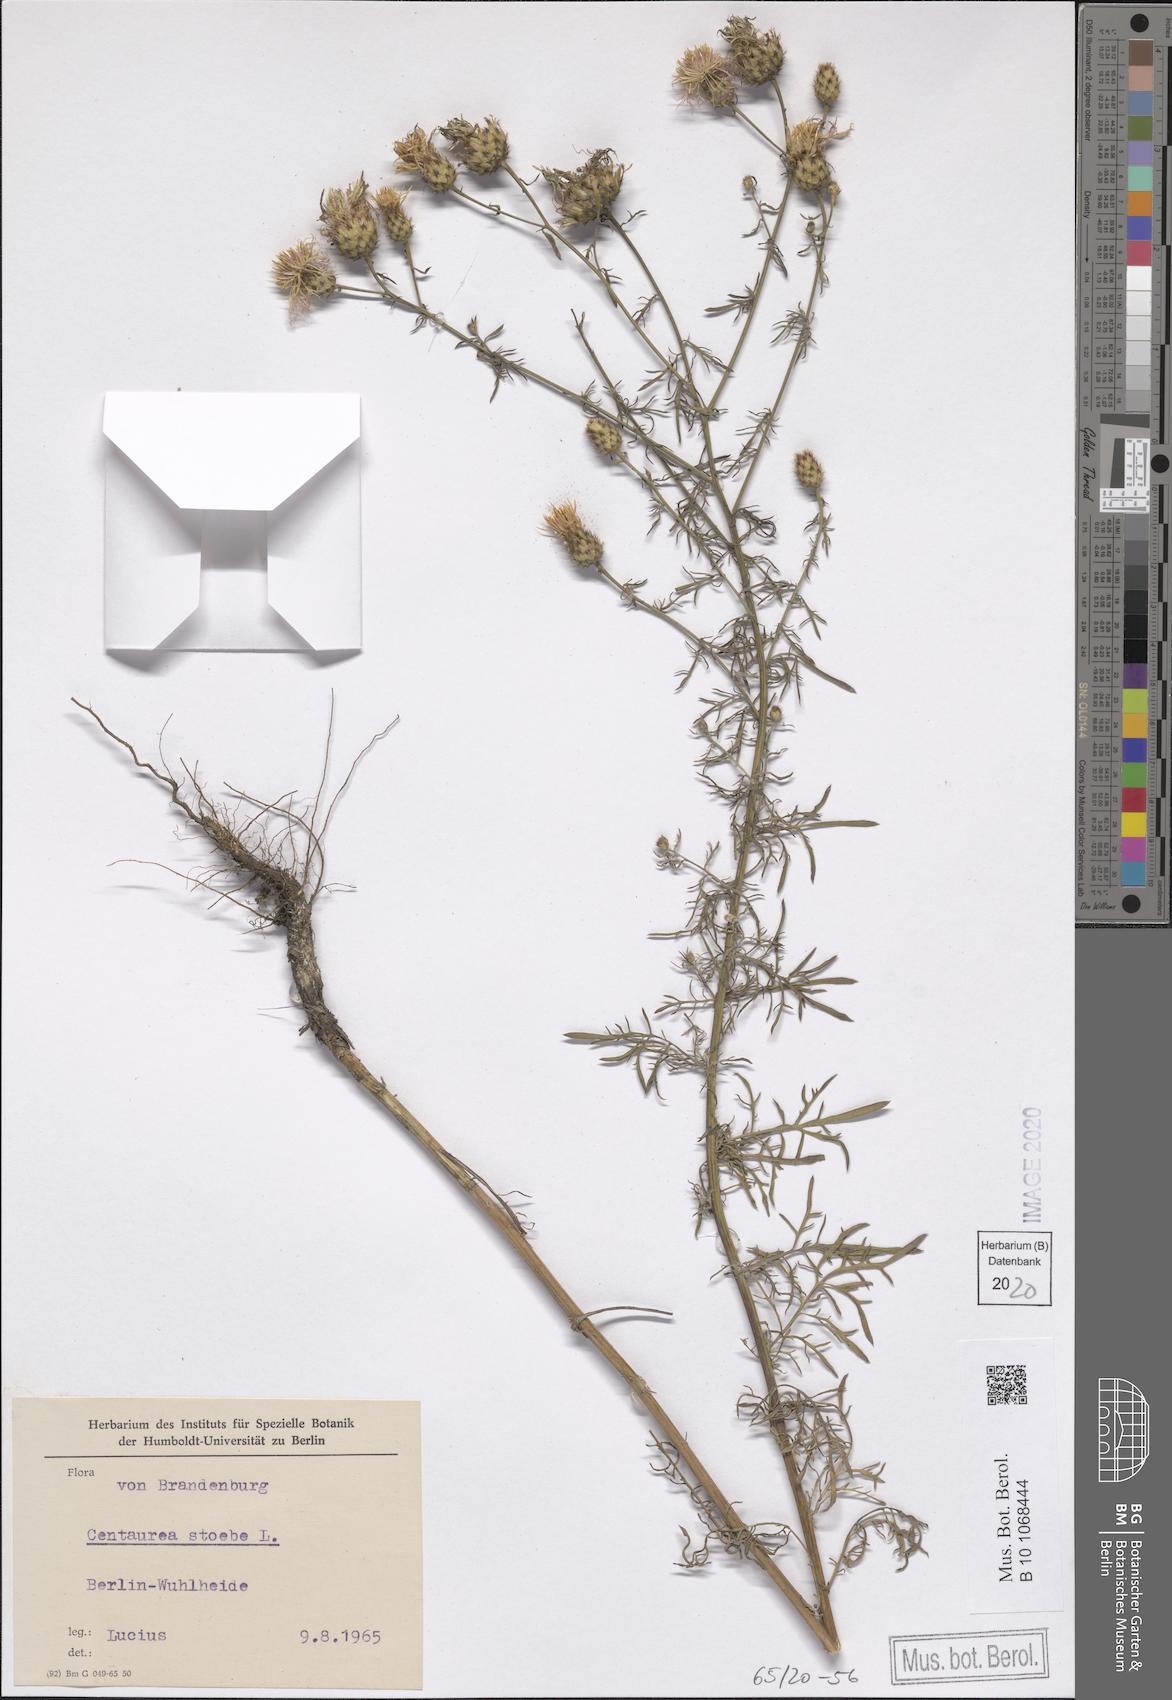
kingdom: Plantae
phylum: Tracheophyta
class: Magnoliopsida
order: Asterales
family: Asteraceae
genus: Centaurea
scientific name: Centaurea stoebe
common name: Spotted knapweed
